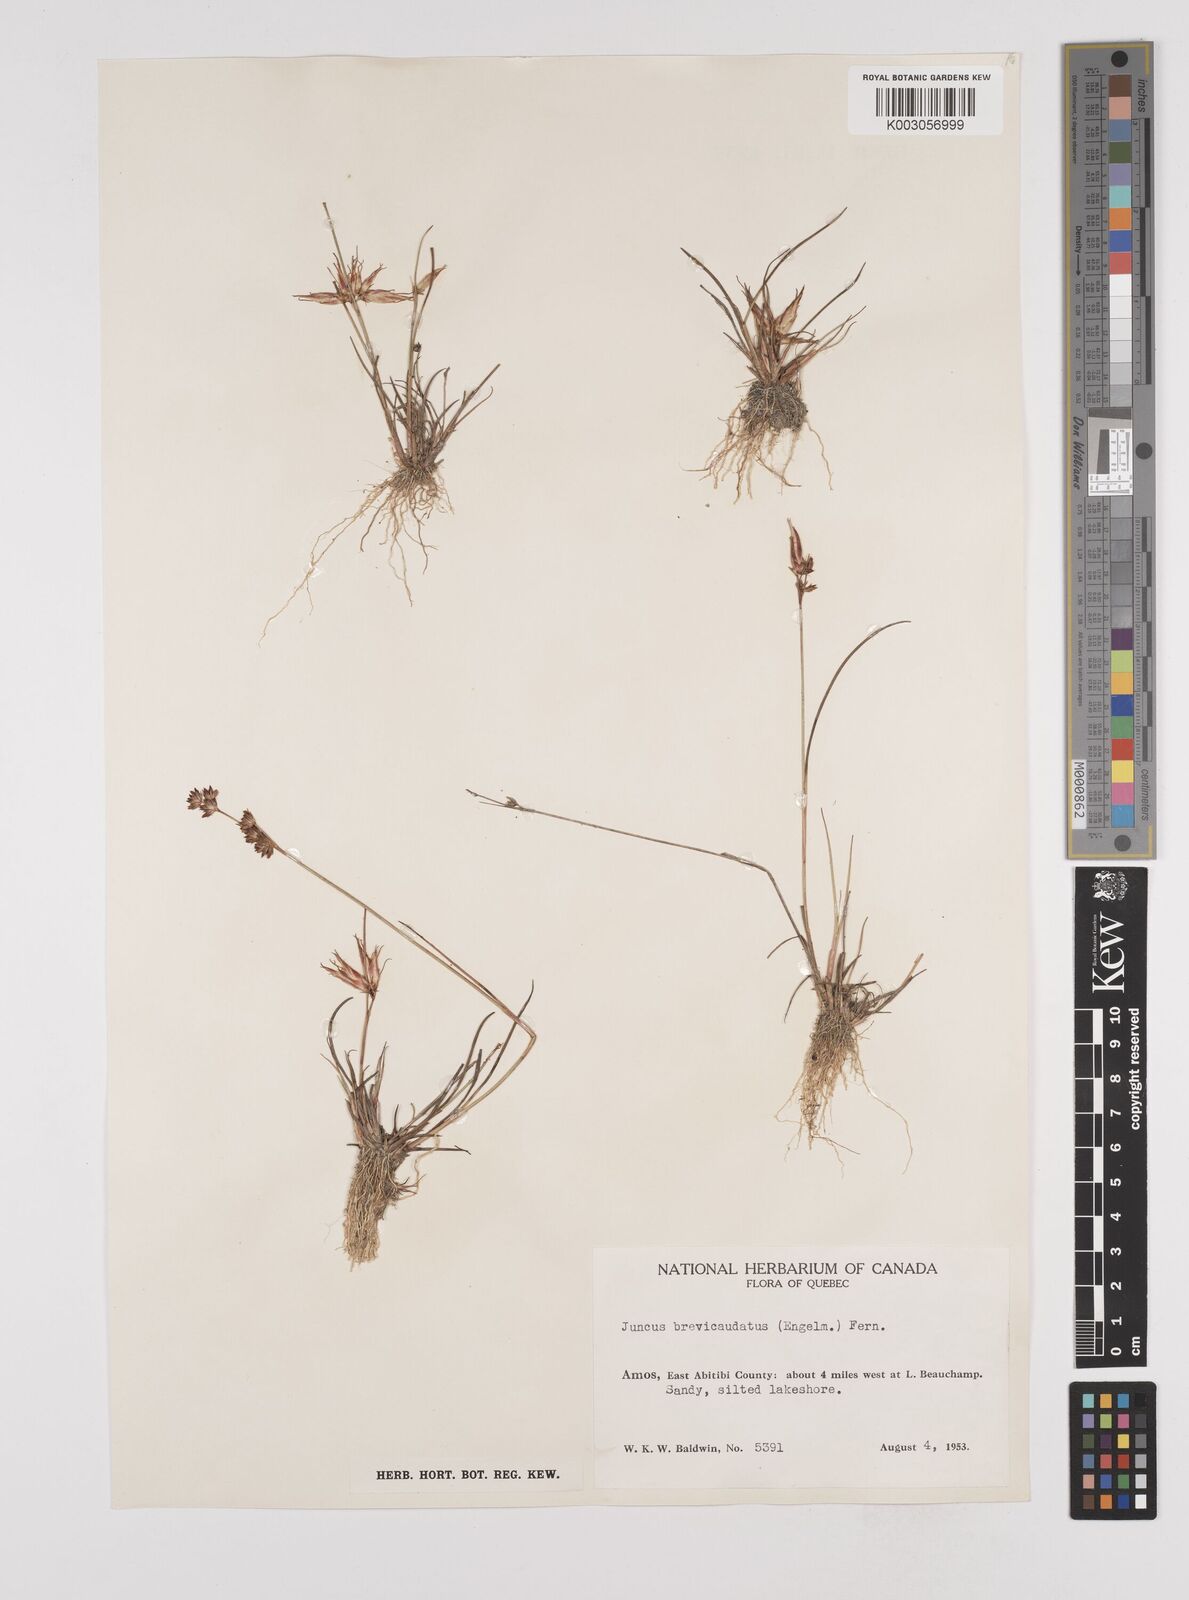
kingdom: Plantae
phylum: Tracheophyta
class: Liliopsida
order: Poales
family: Juncaceae
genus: Juncus
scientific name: Juncus brevicaudatus
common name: Narrow-panicle rush
